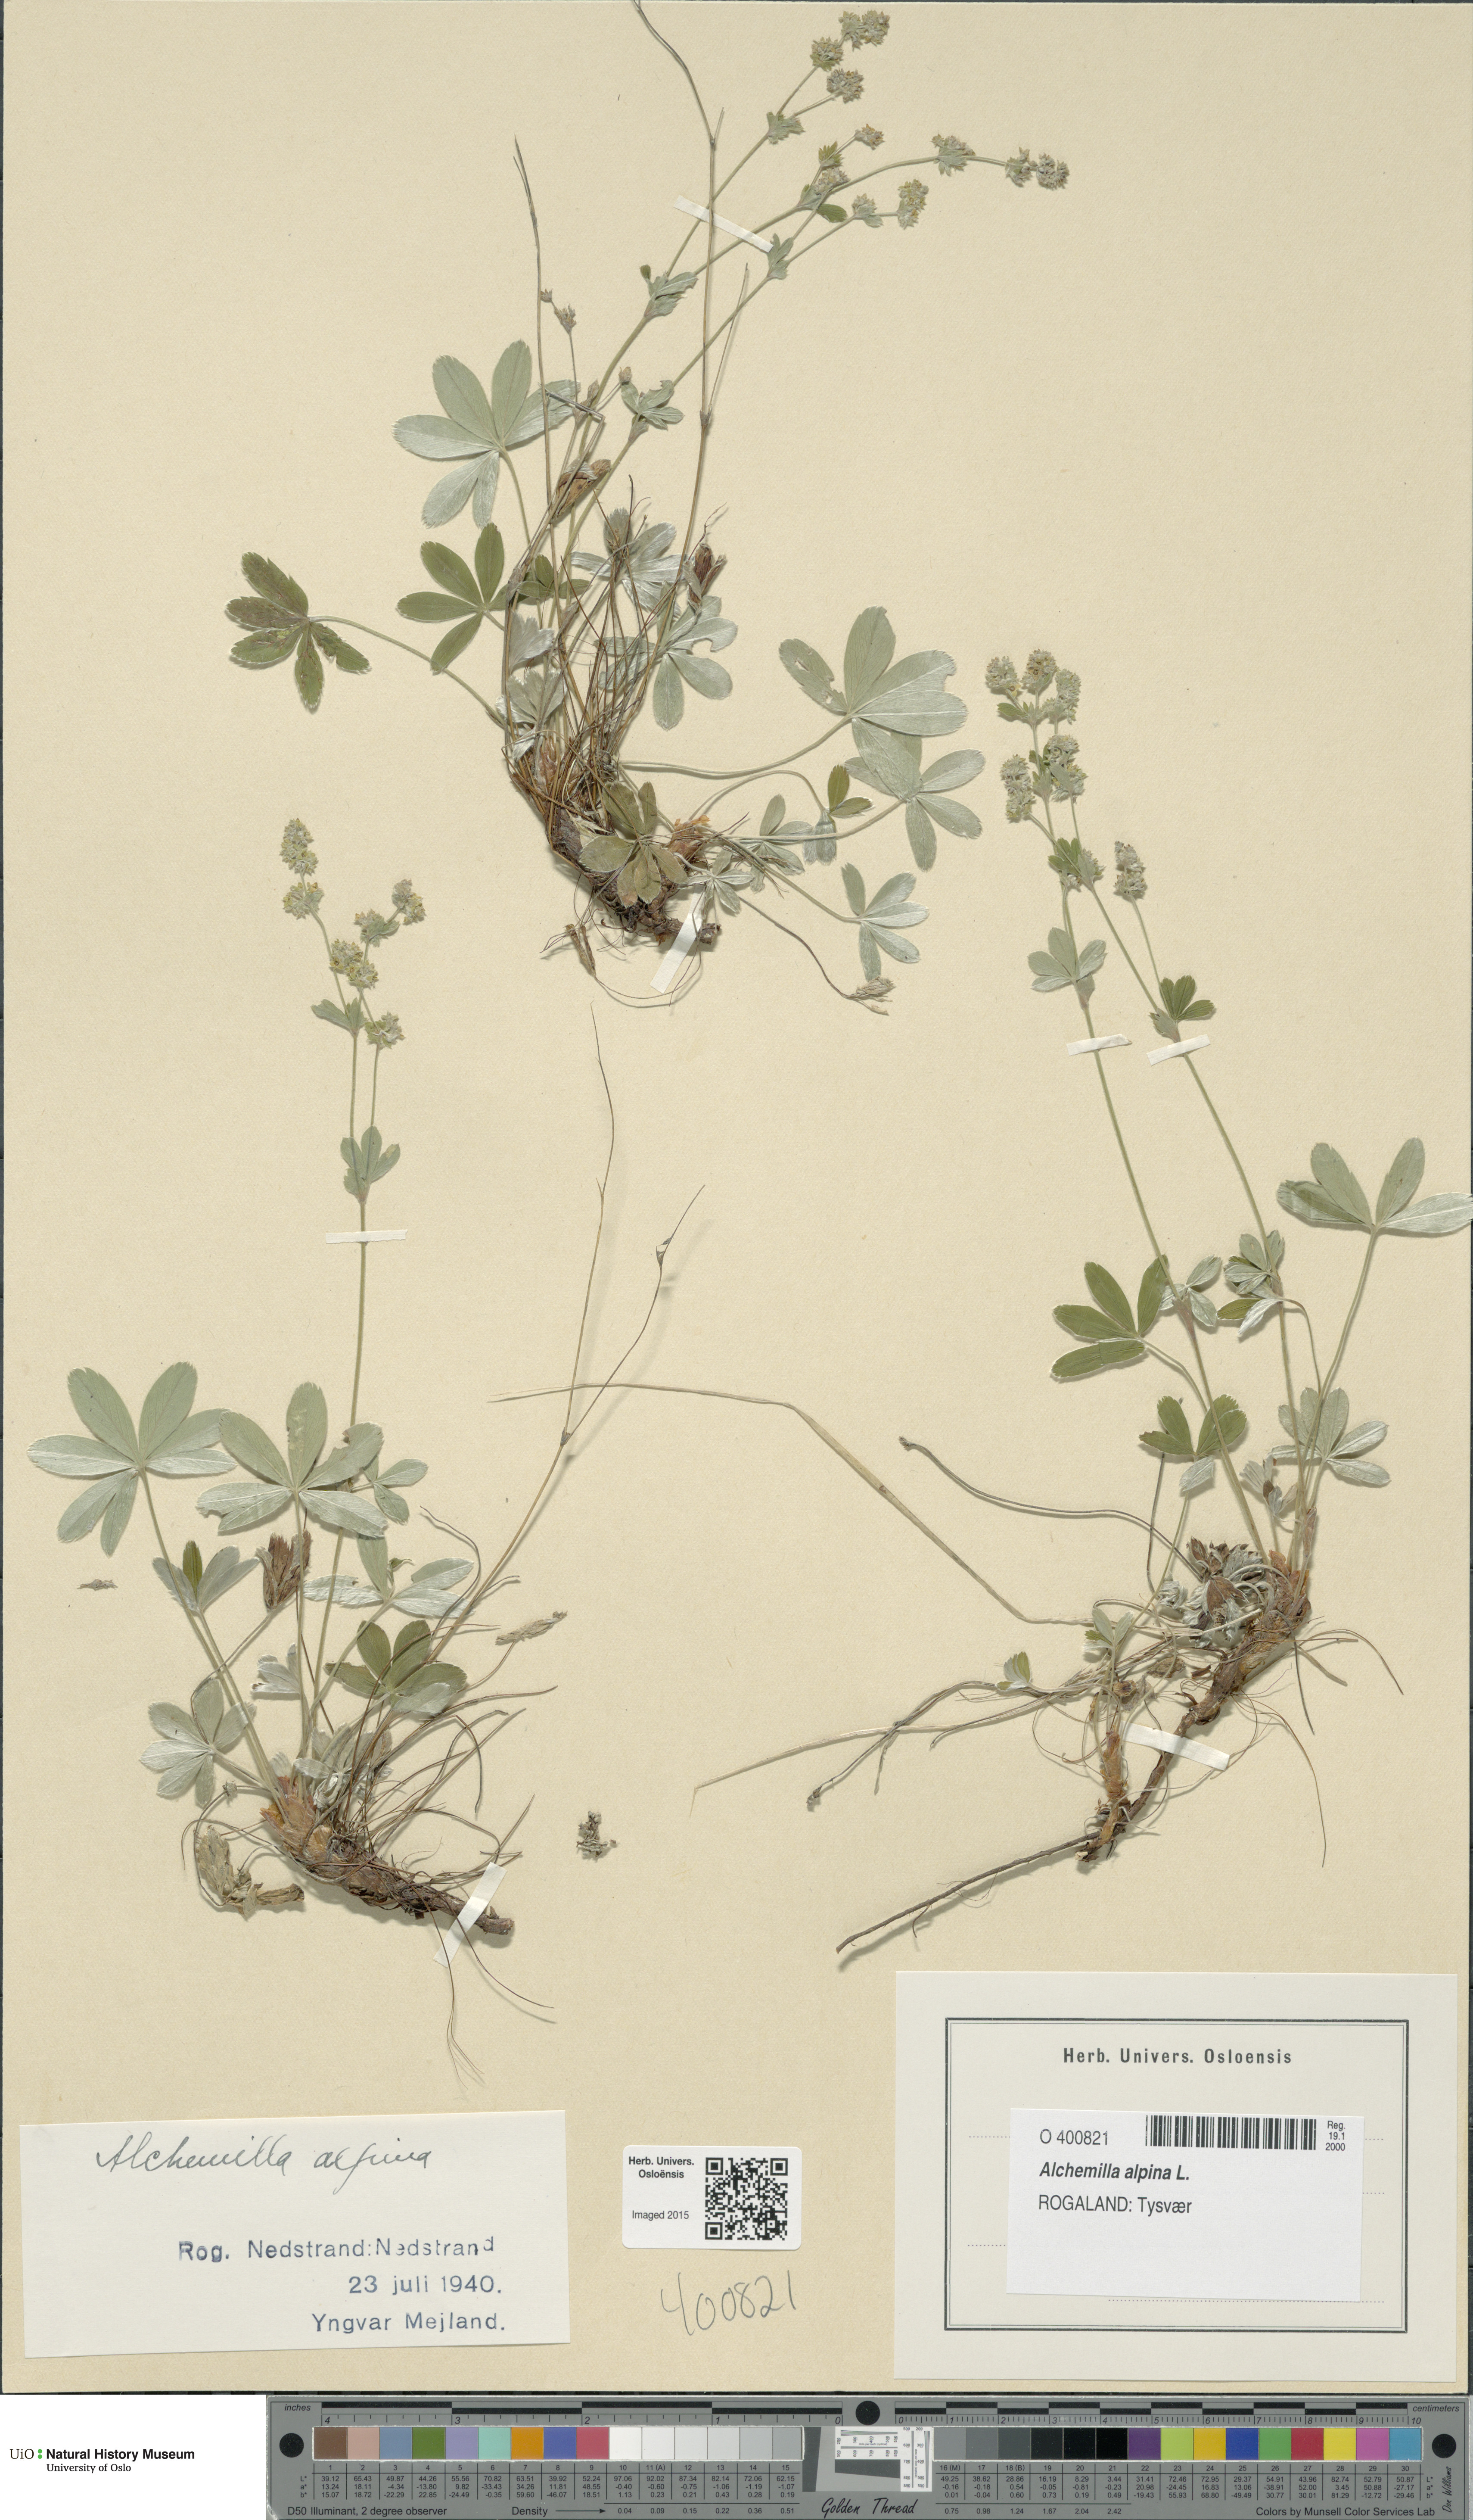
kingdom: Plantae
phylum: Tracheophyta
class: Magnoliopsida
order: Rosales
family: Rosaceae
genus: Alchemilla
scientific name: Alchemilla alpina
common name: Alpine lady's-mantle
